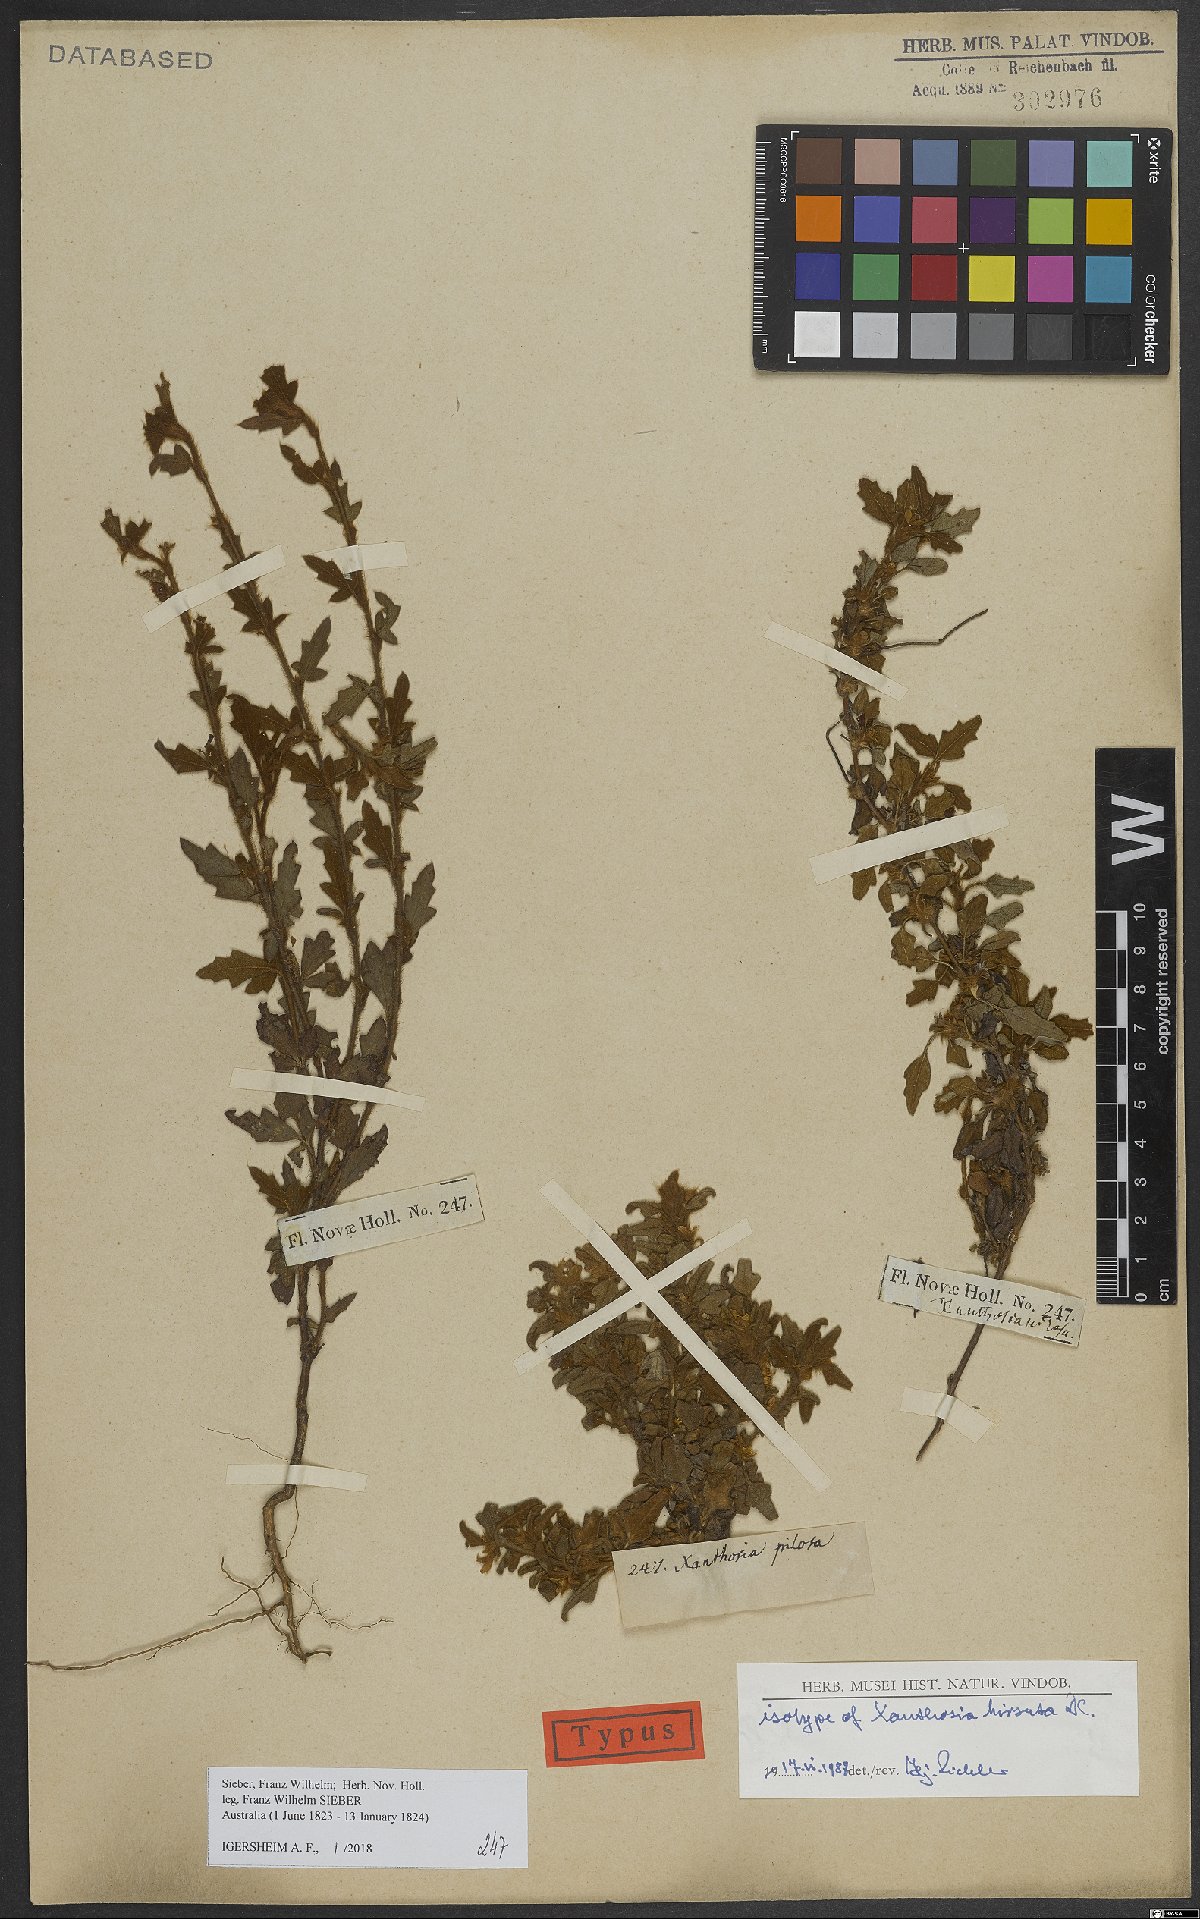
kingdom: Plantae
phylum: Tracheophyta
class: Magnoliopsida
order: Apiales
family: Apiaceae
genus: Xanthosia
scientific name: Xanthosia pilosa
